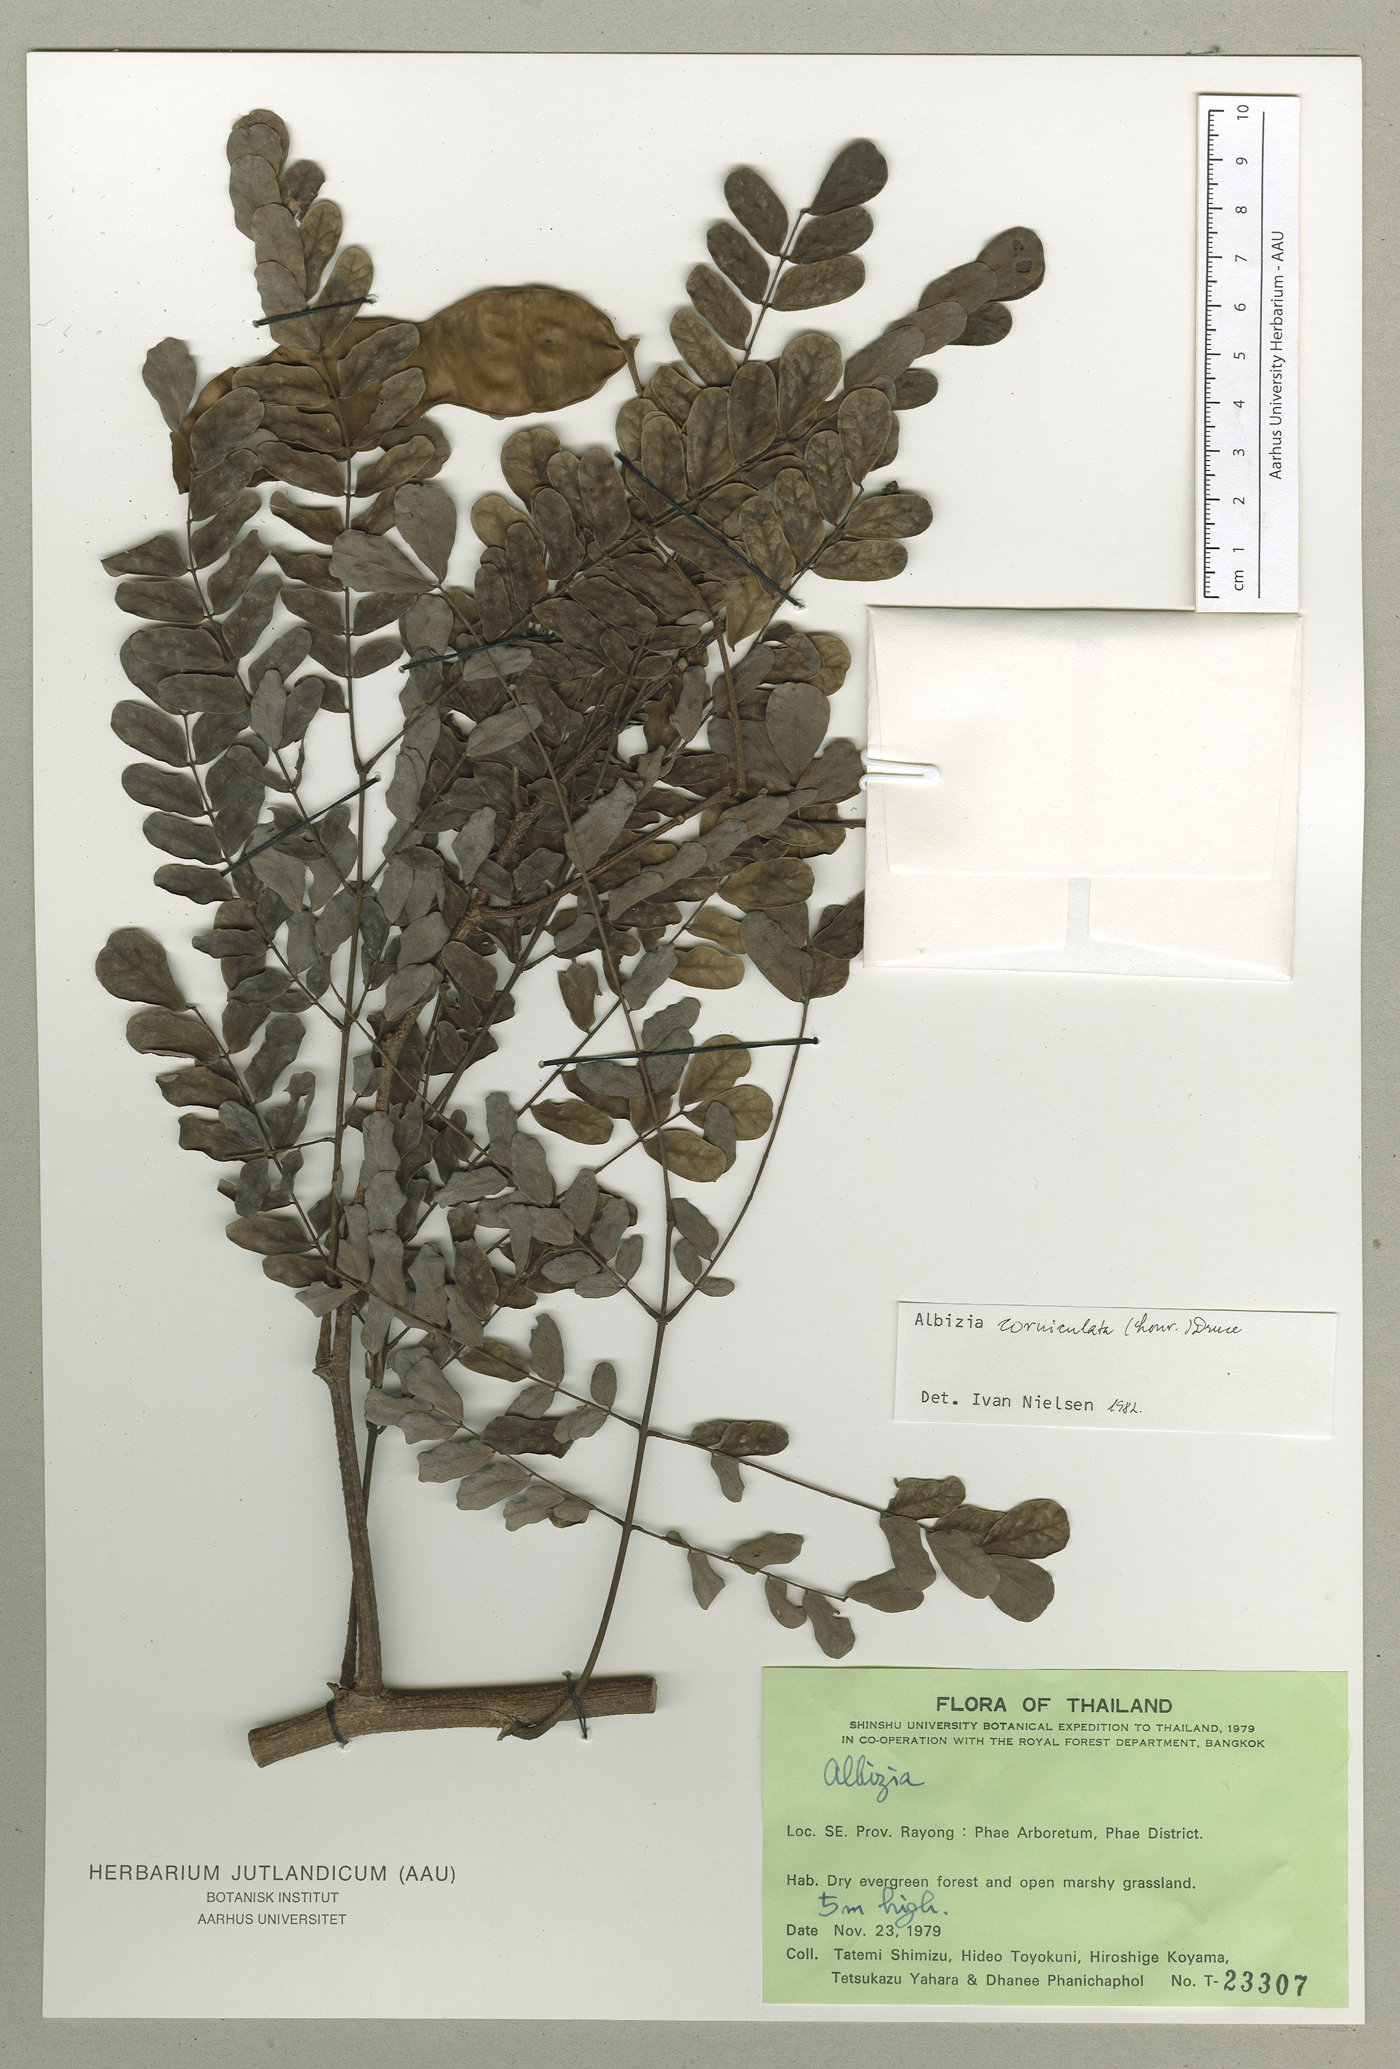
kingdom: Plantae
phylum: Tracheophyta
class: Magnoliopsida
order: Fabales
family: Fabaceae
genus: Albizia
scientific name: Albizia corniculata
